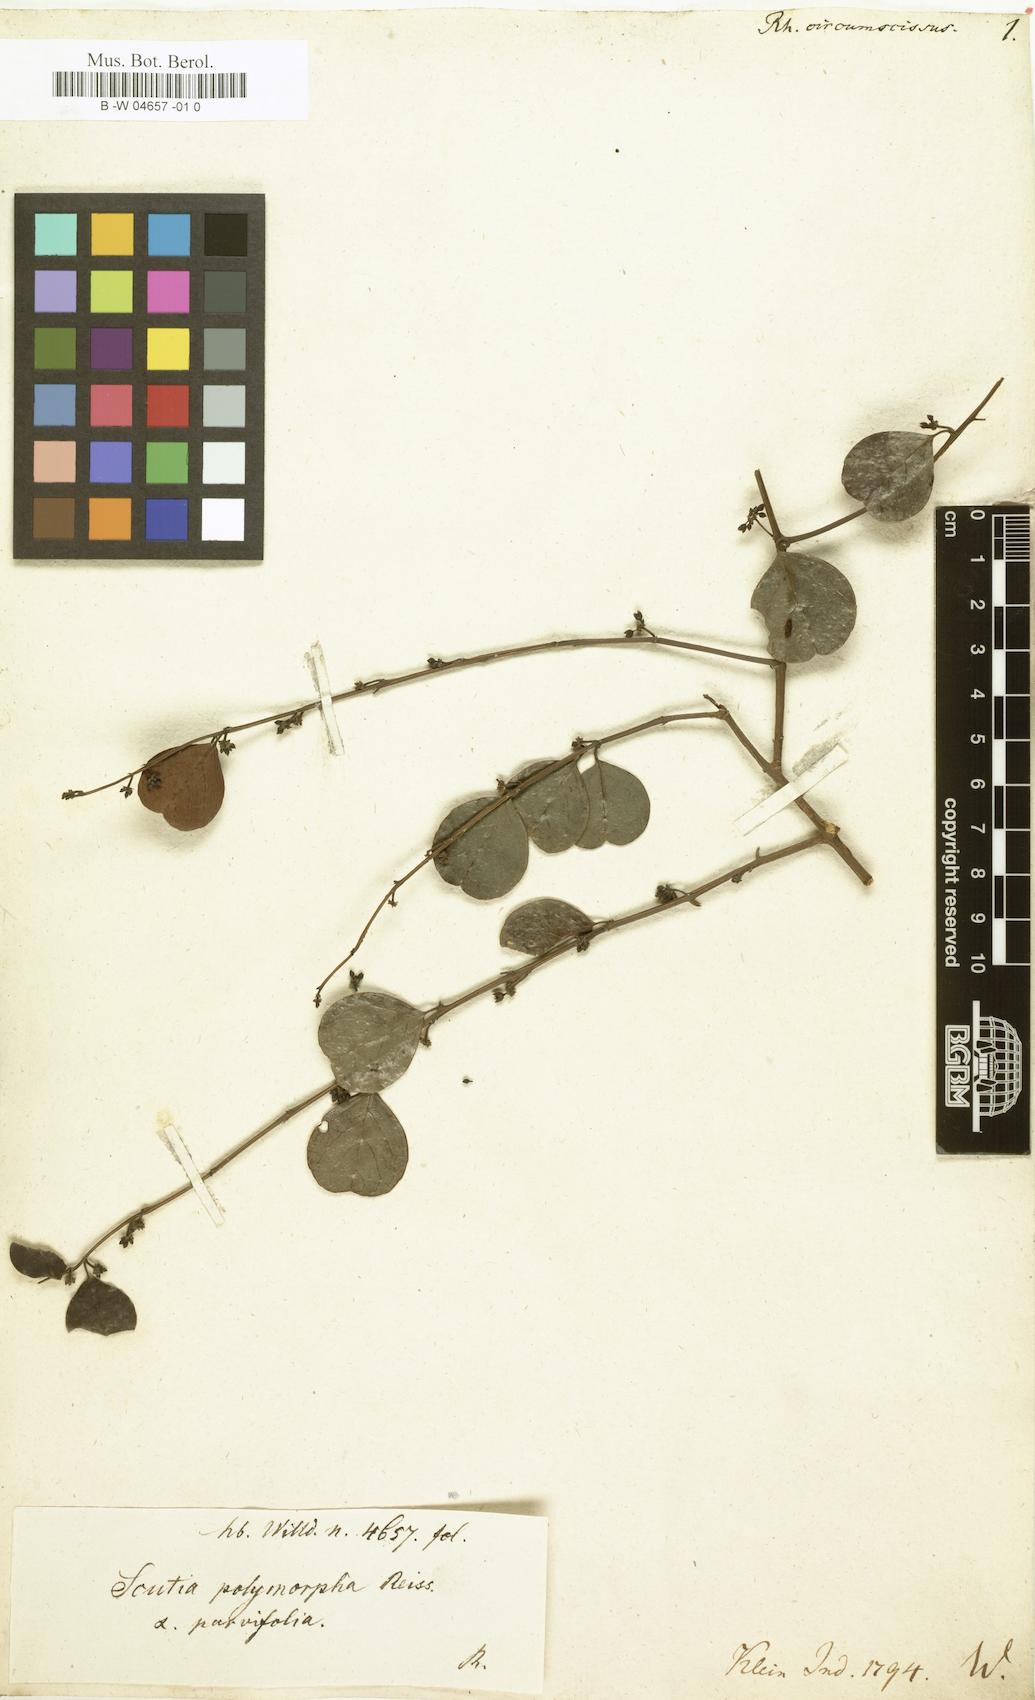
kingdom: Plantae
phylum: Tracheophyta
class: Magnoliopsida
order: Rosales
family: Rhamnaceae
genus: Scutia
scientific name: Scutia myrtina
